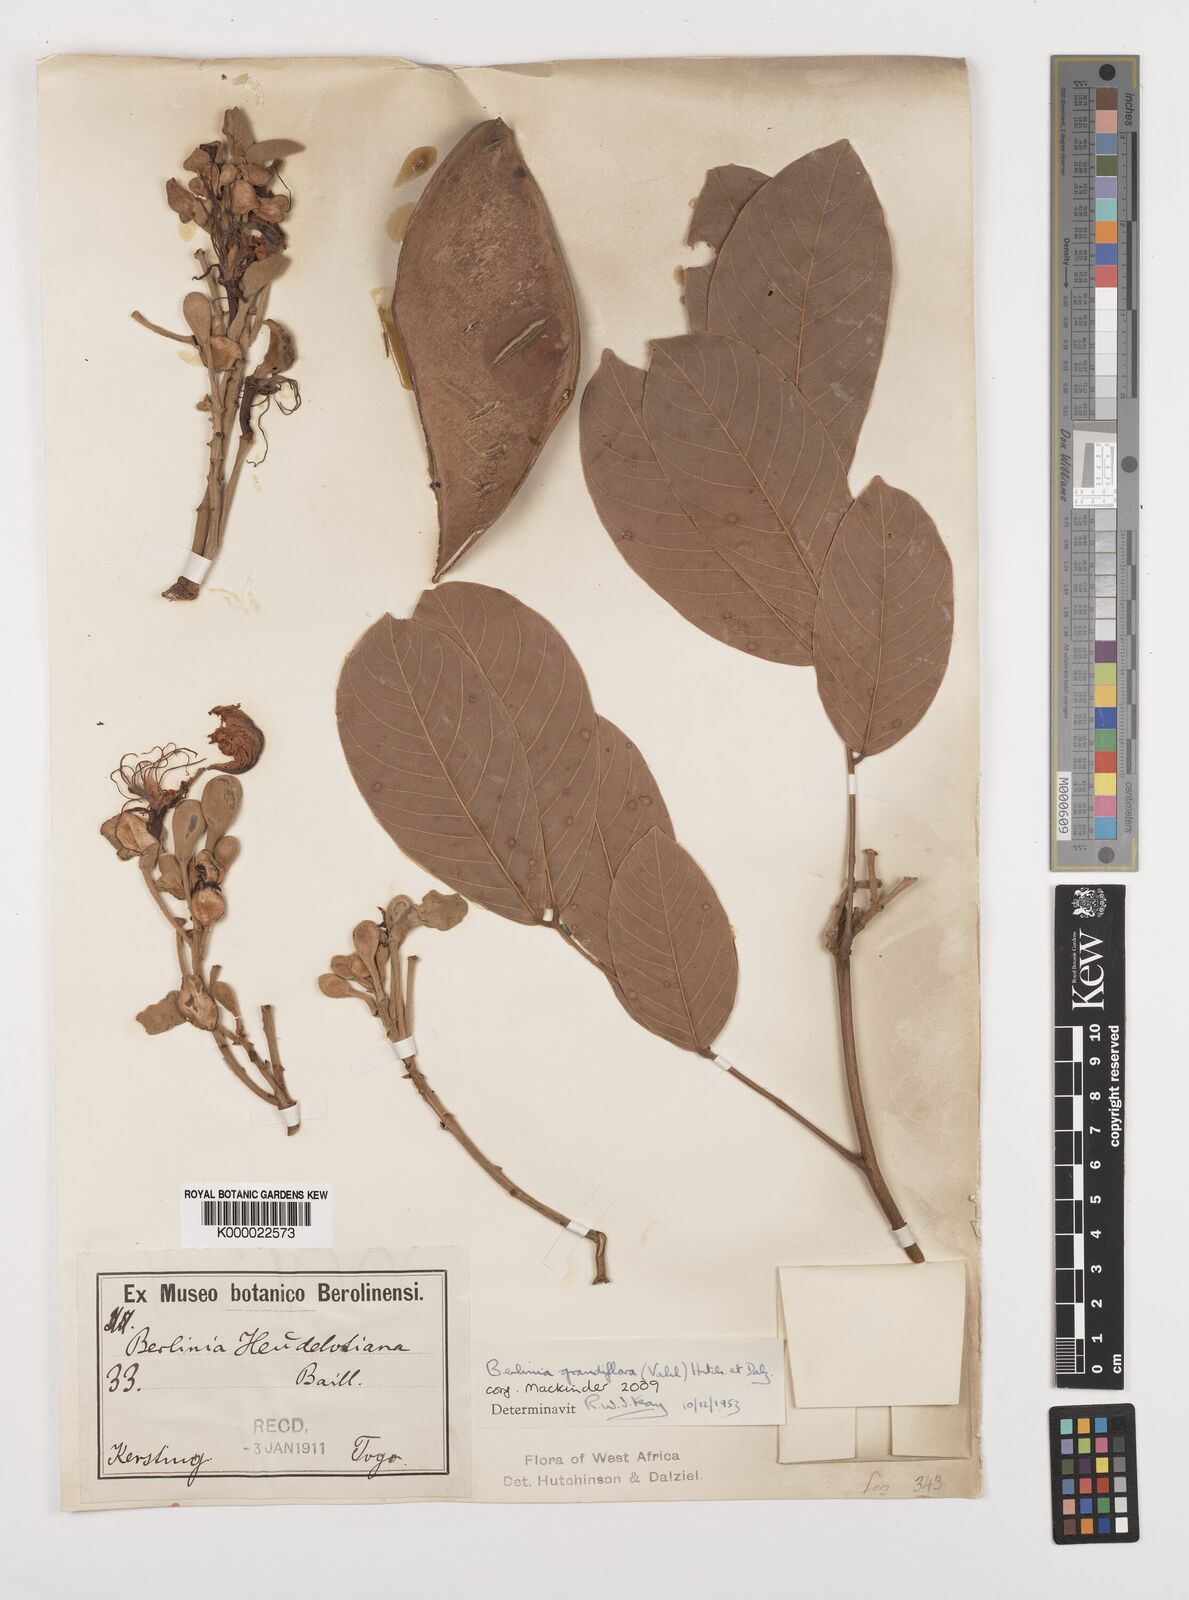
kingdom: Plantae
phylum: Tracheophyta
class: Magnoliopsida
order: Fabales
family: Fabaceae
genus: Berlinia
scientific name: Berlinia grandiflora
